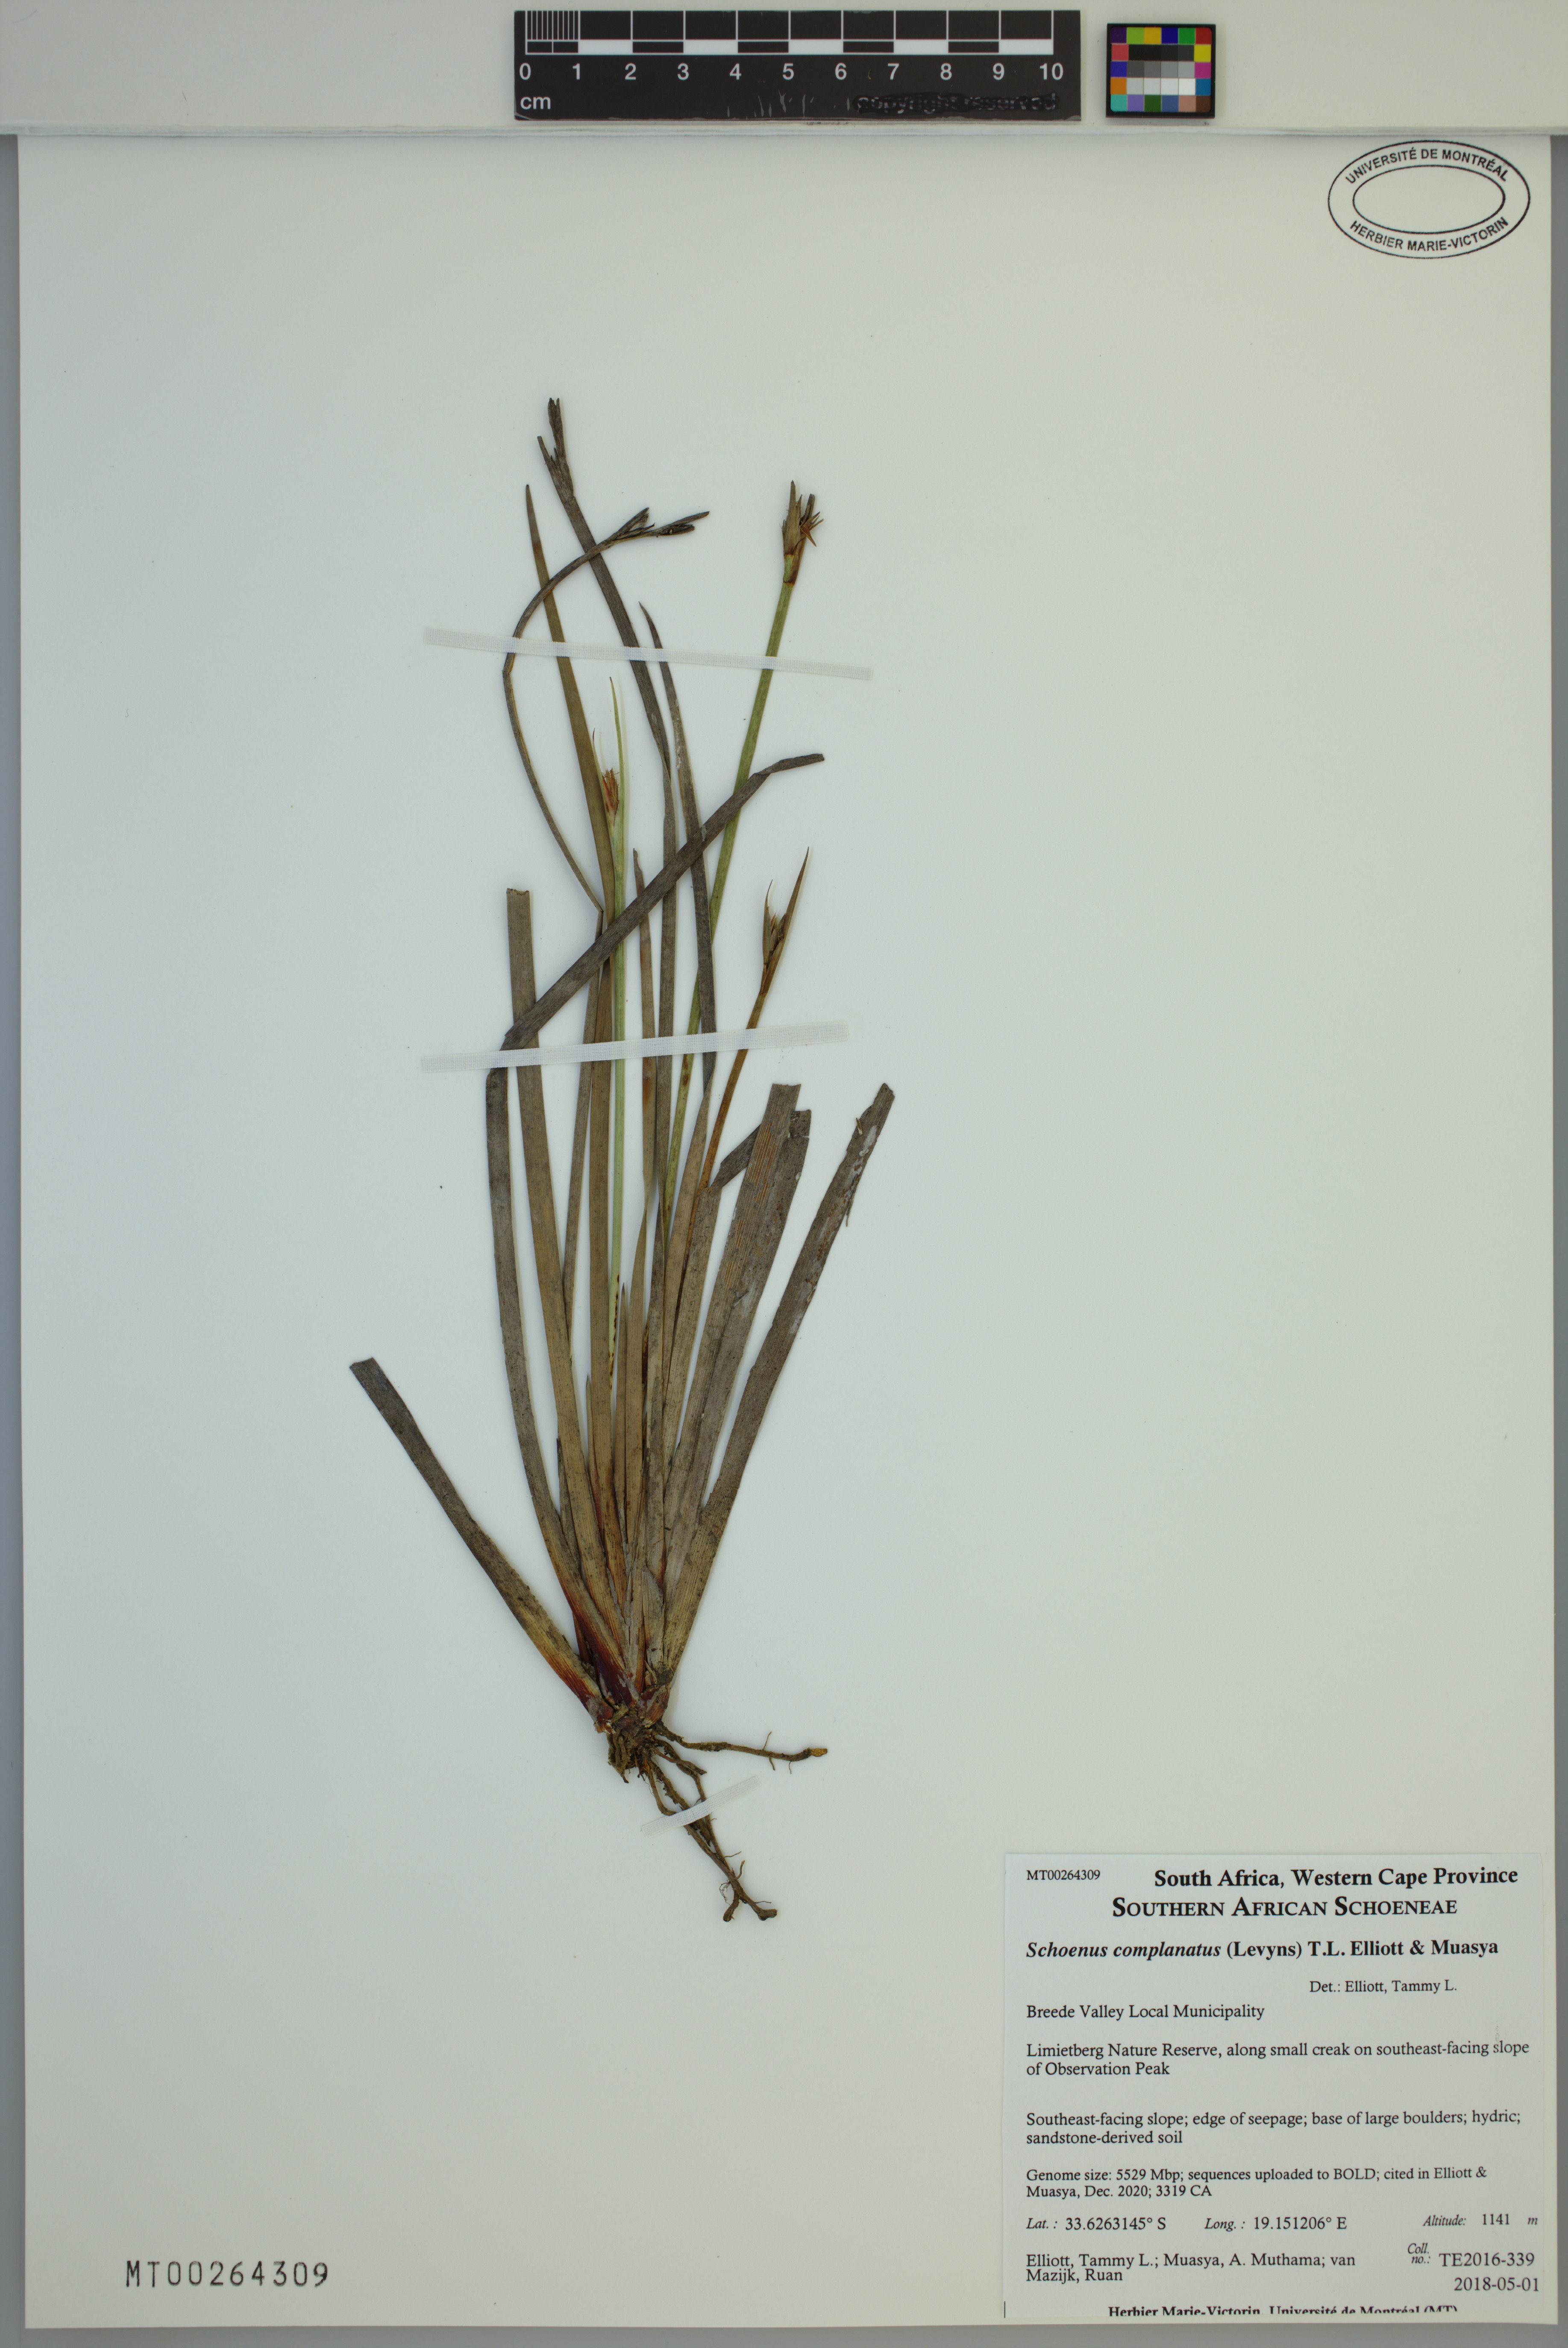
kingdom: Plantae
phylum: Tracheophyta
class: Liliopsida
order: Poales
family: Cyperaceae
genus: Schoenus
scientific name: Schoenus complanatus
